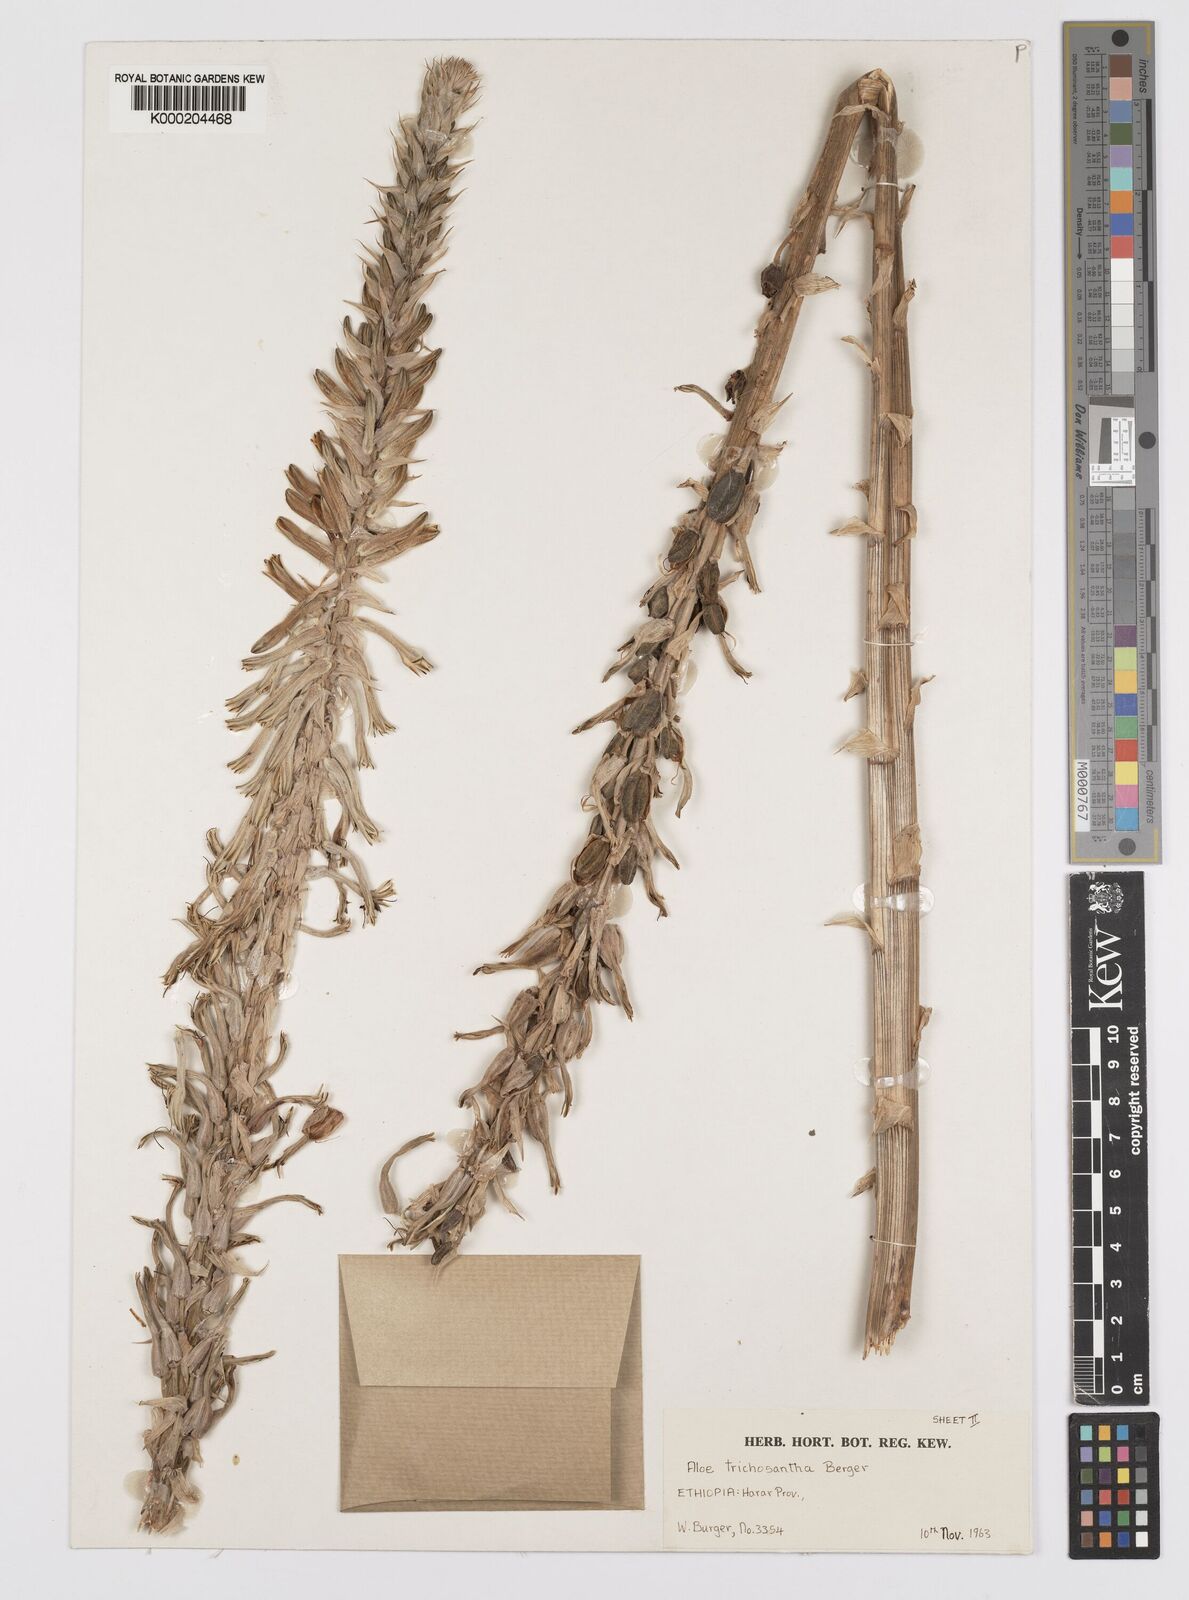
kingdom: Plantae
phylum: Tracheophyta
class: Liliopsida
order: Asparagales
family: Asphodelaceae
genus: Aloe
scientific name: Aloe trichosantha
